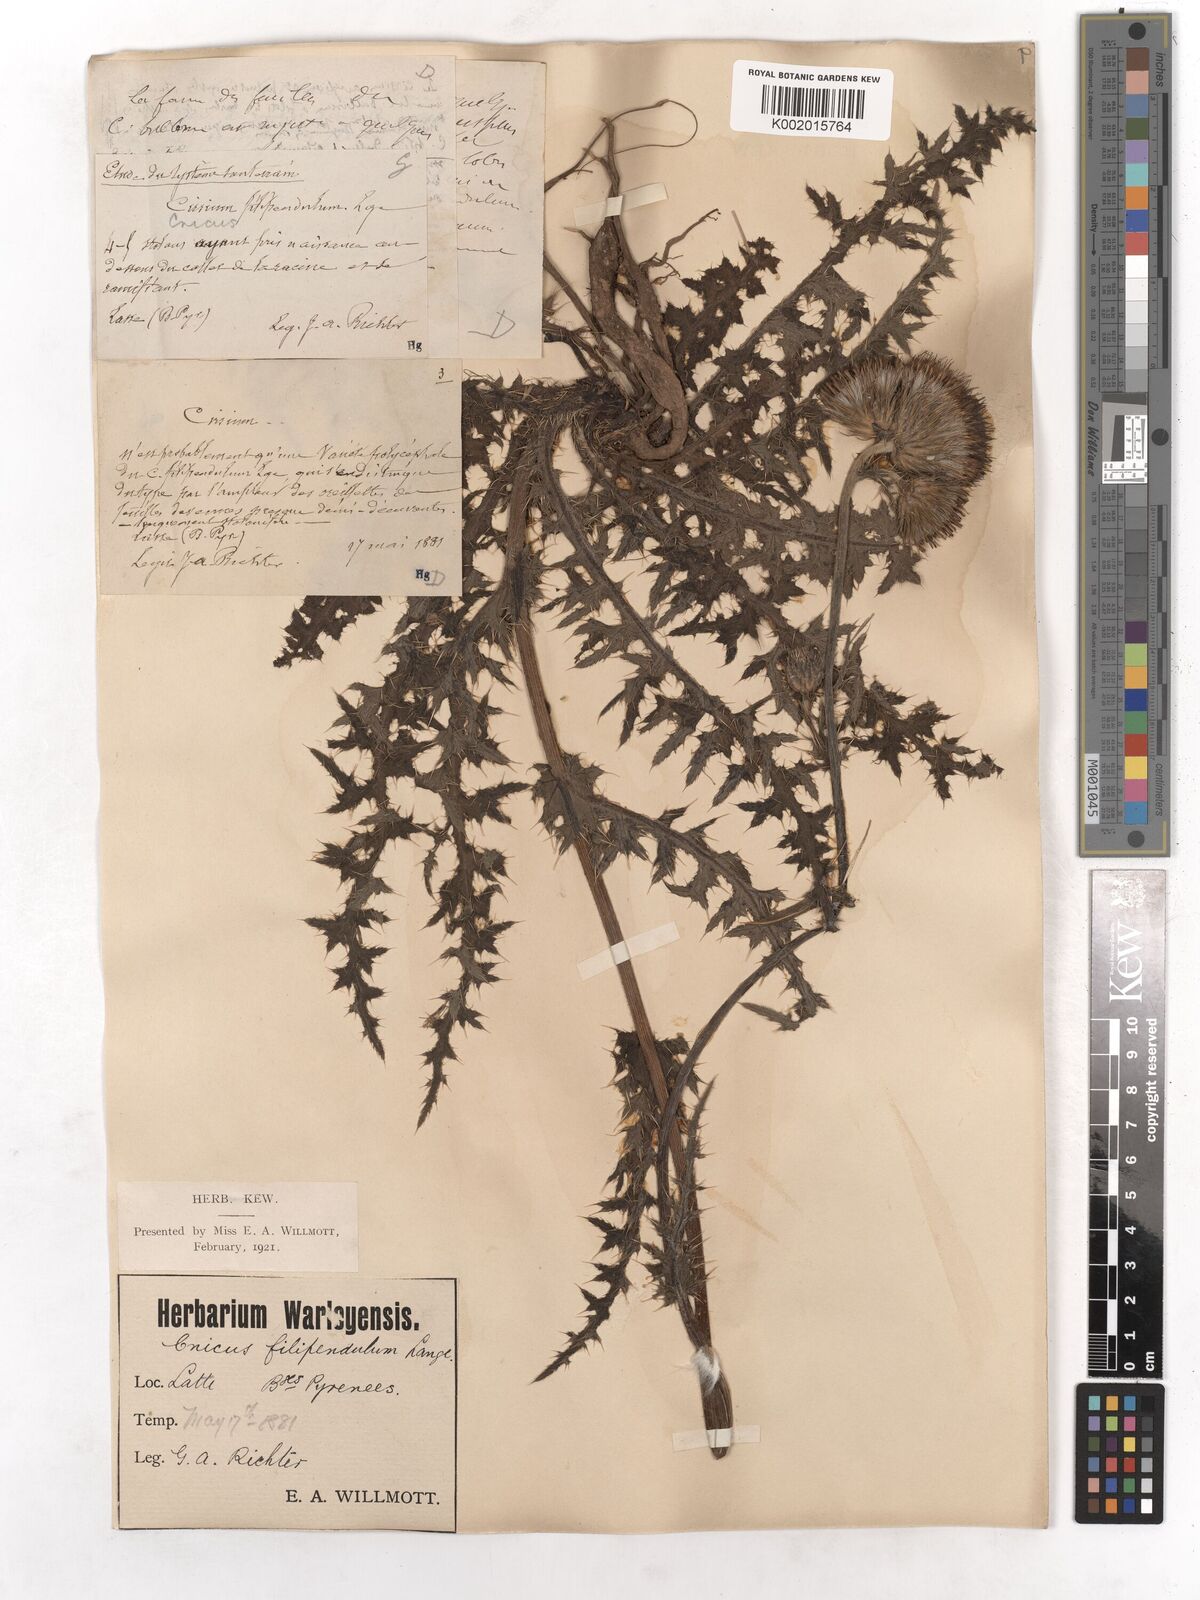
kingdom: Plantae
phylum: Tracheophyta
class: Magnoliopsida
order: Asterales
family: Asteraceae
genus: Cirsium
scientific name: Cirsium filipendulum
